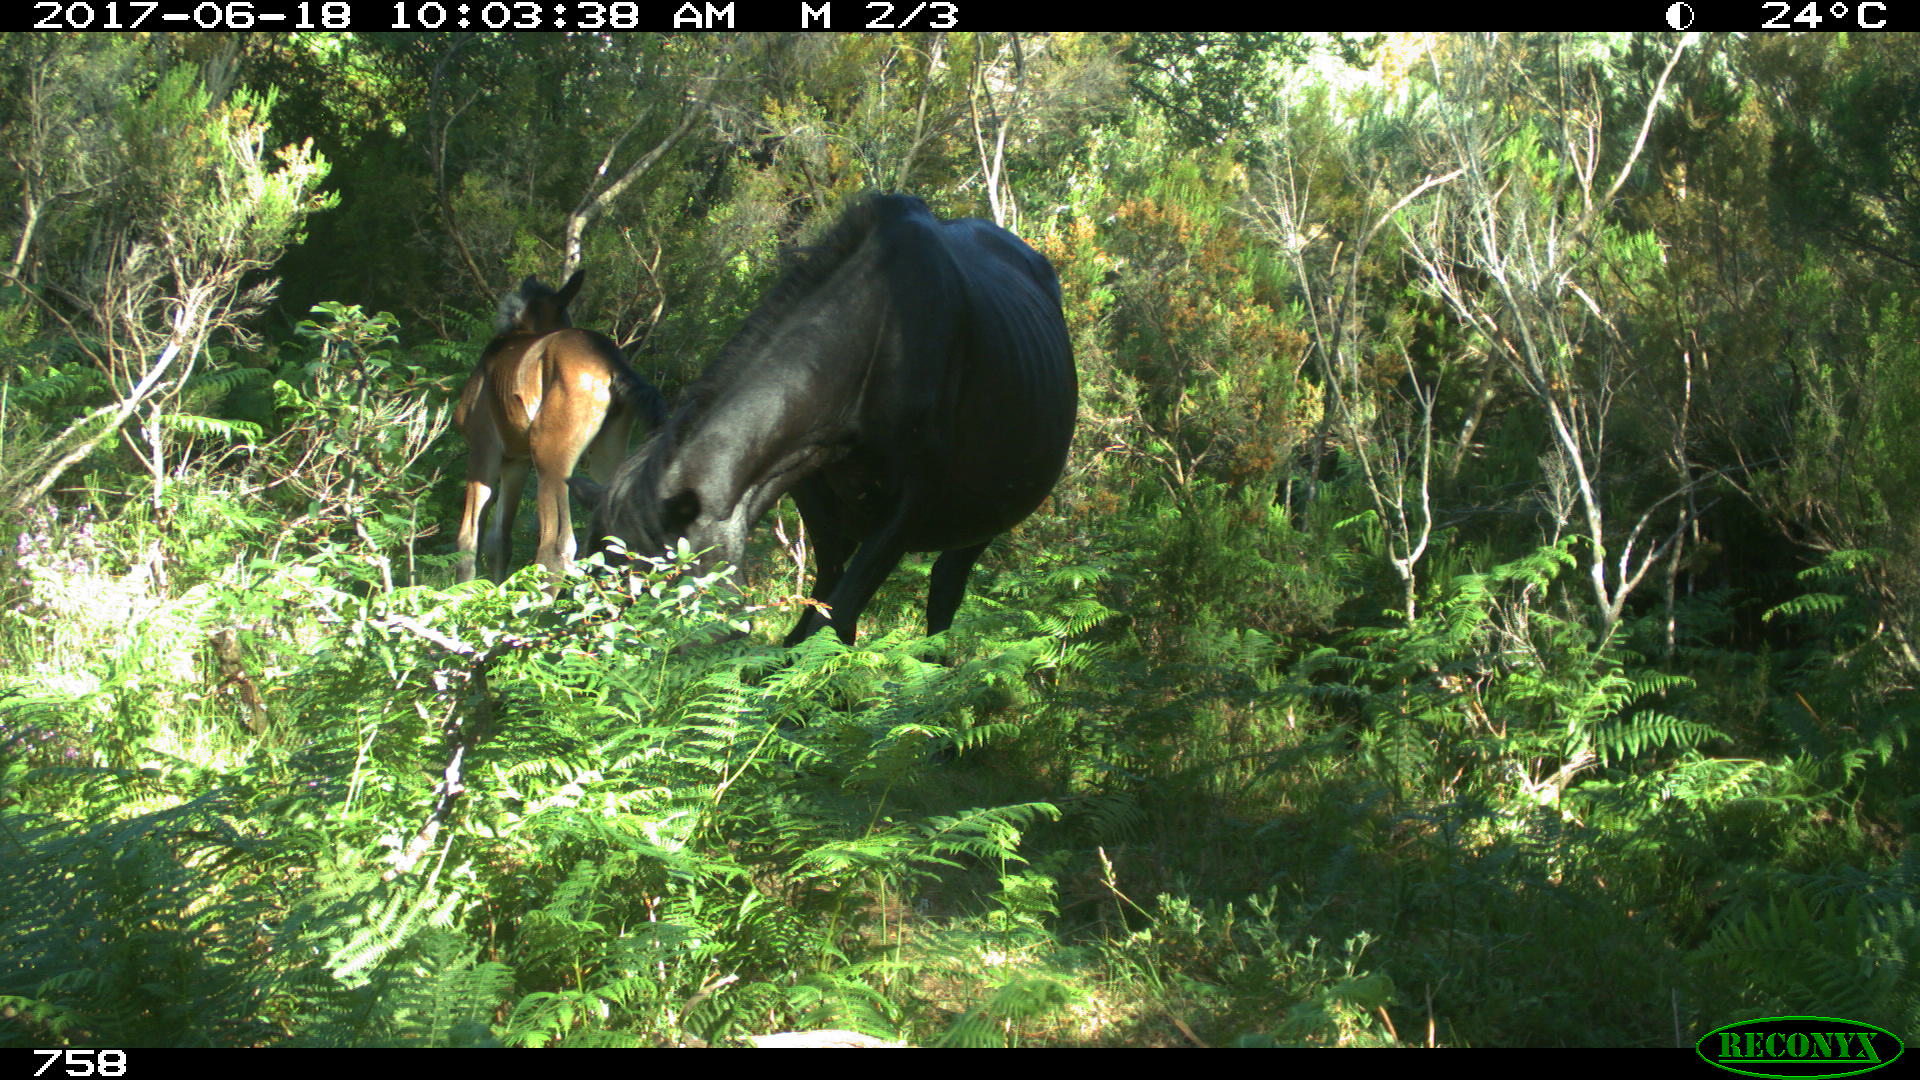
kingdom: Animalia
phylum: Chordata
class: Mammalia
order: Perissodactyla
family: Equidae
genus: Equus
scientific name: Equus caballus
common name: Horse
